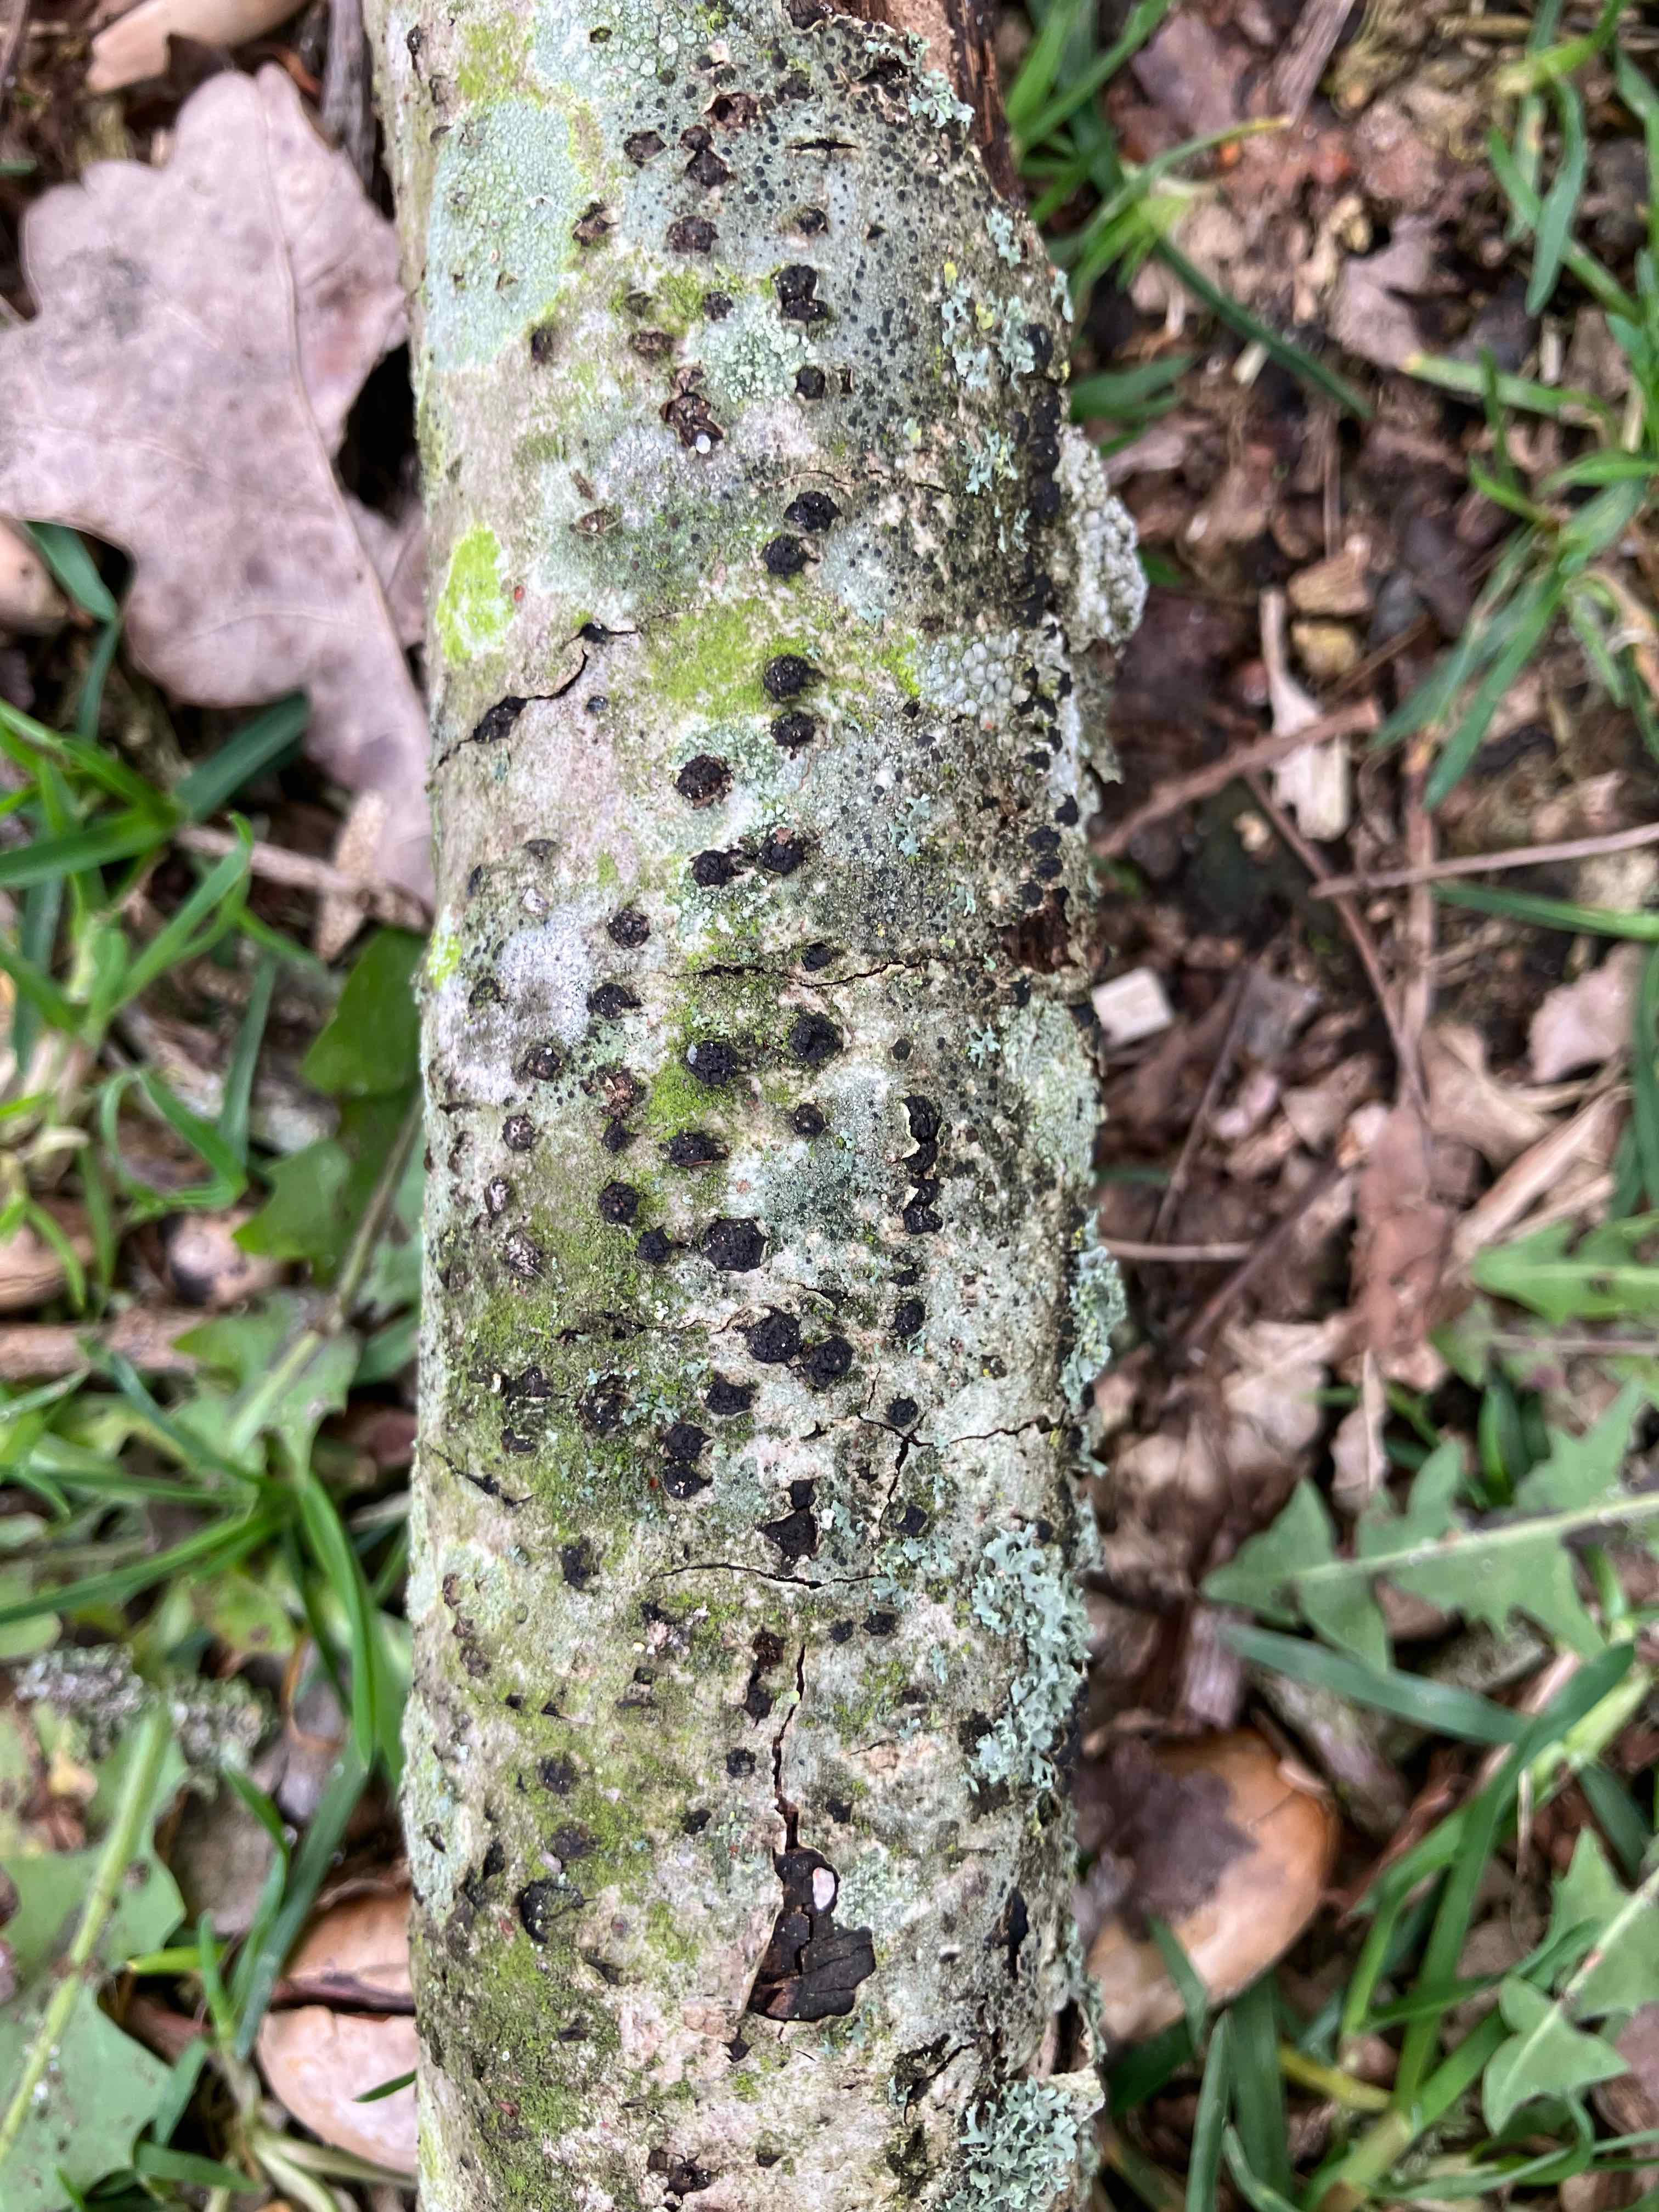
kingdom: Fungi
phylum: Ascomycota
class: Sordariomycetes
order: Xylariales
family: Diatrypaceae
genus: Diatrypella
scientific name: Diatrypella quercina
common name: ege-kulskorpe
